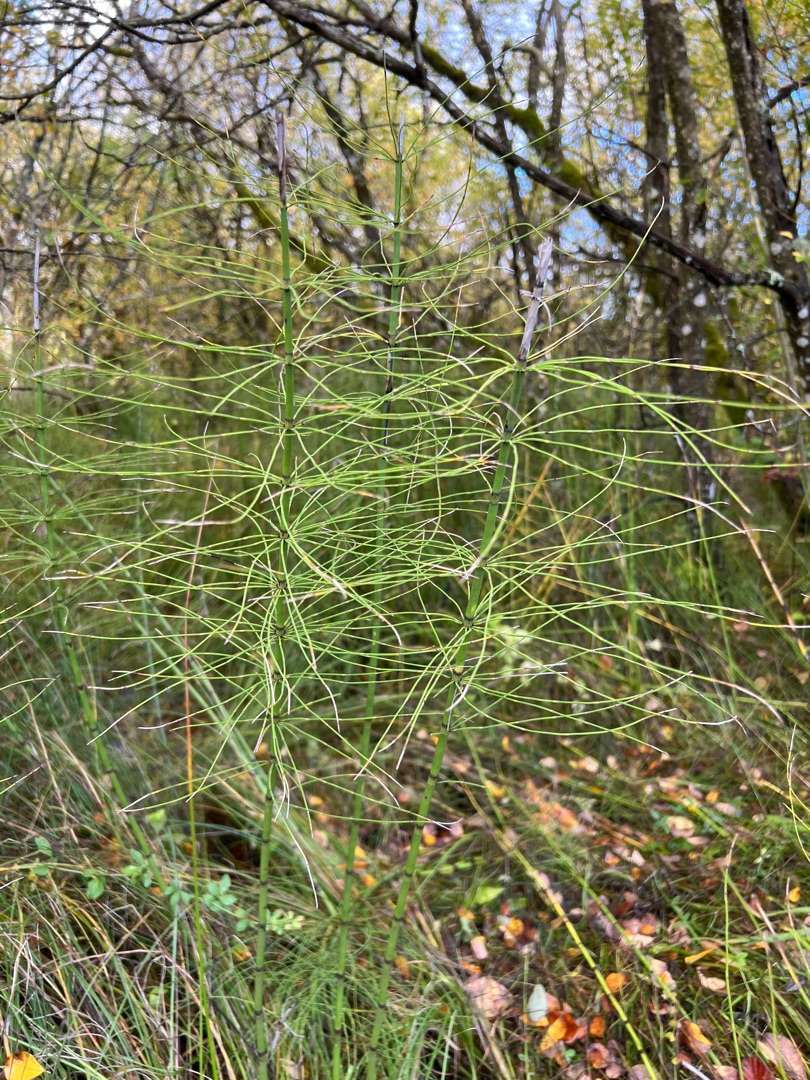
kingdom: Plantae
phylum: Tracheophyta
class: Polypodiopsida
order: Equisetales
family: Equisetaceae
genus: Equisetum
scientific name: Equisetum fluviatile
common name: Dynd-padderok
